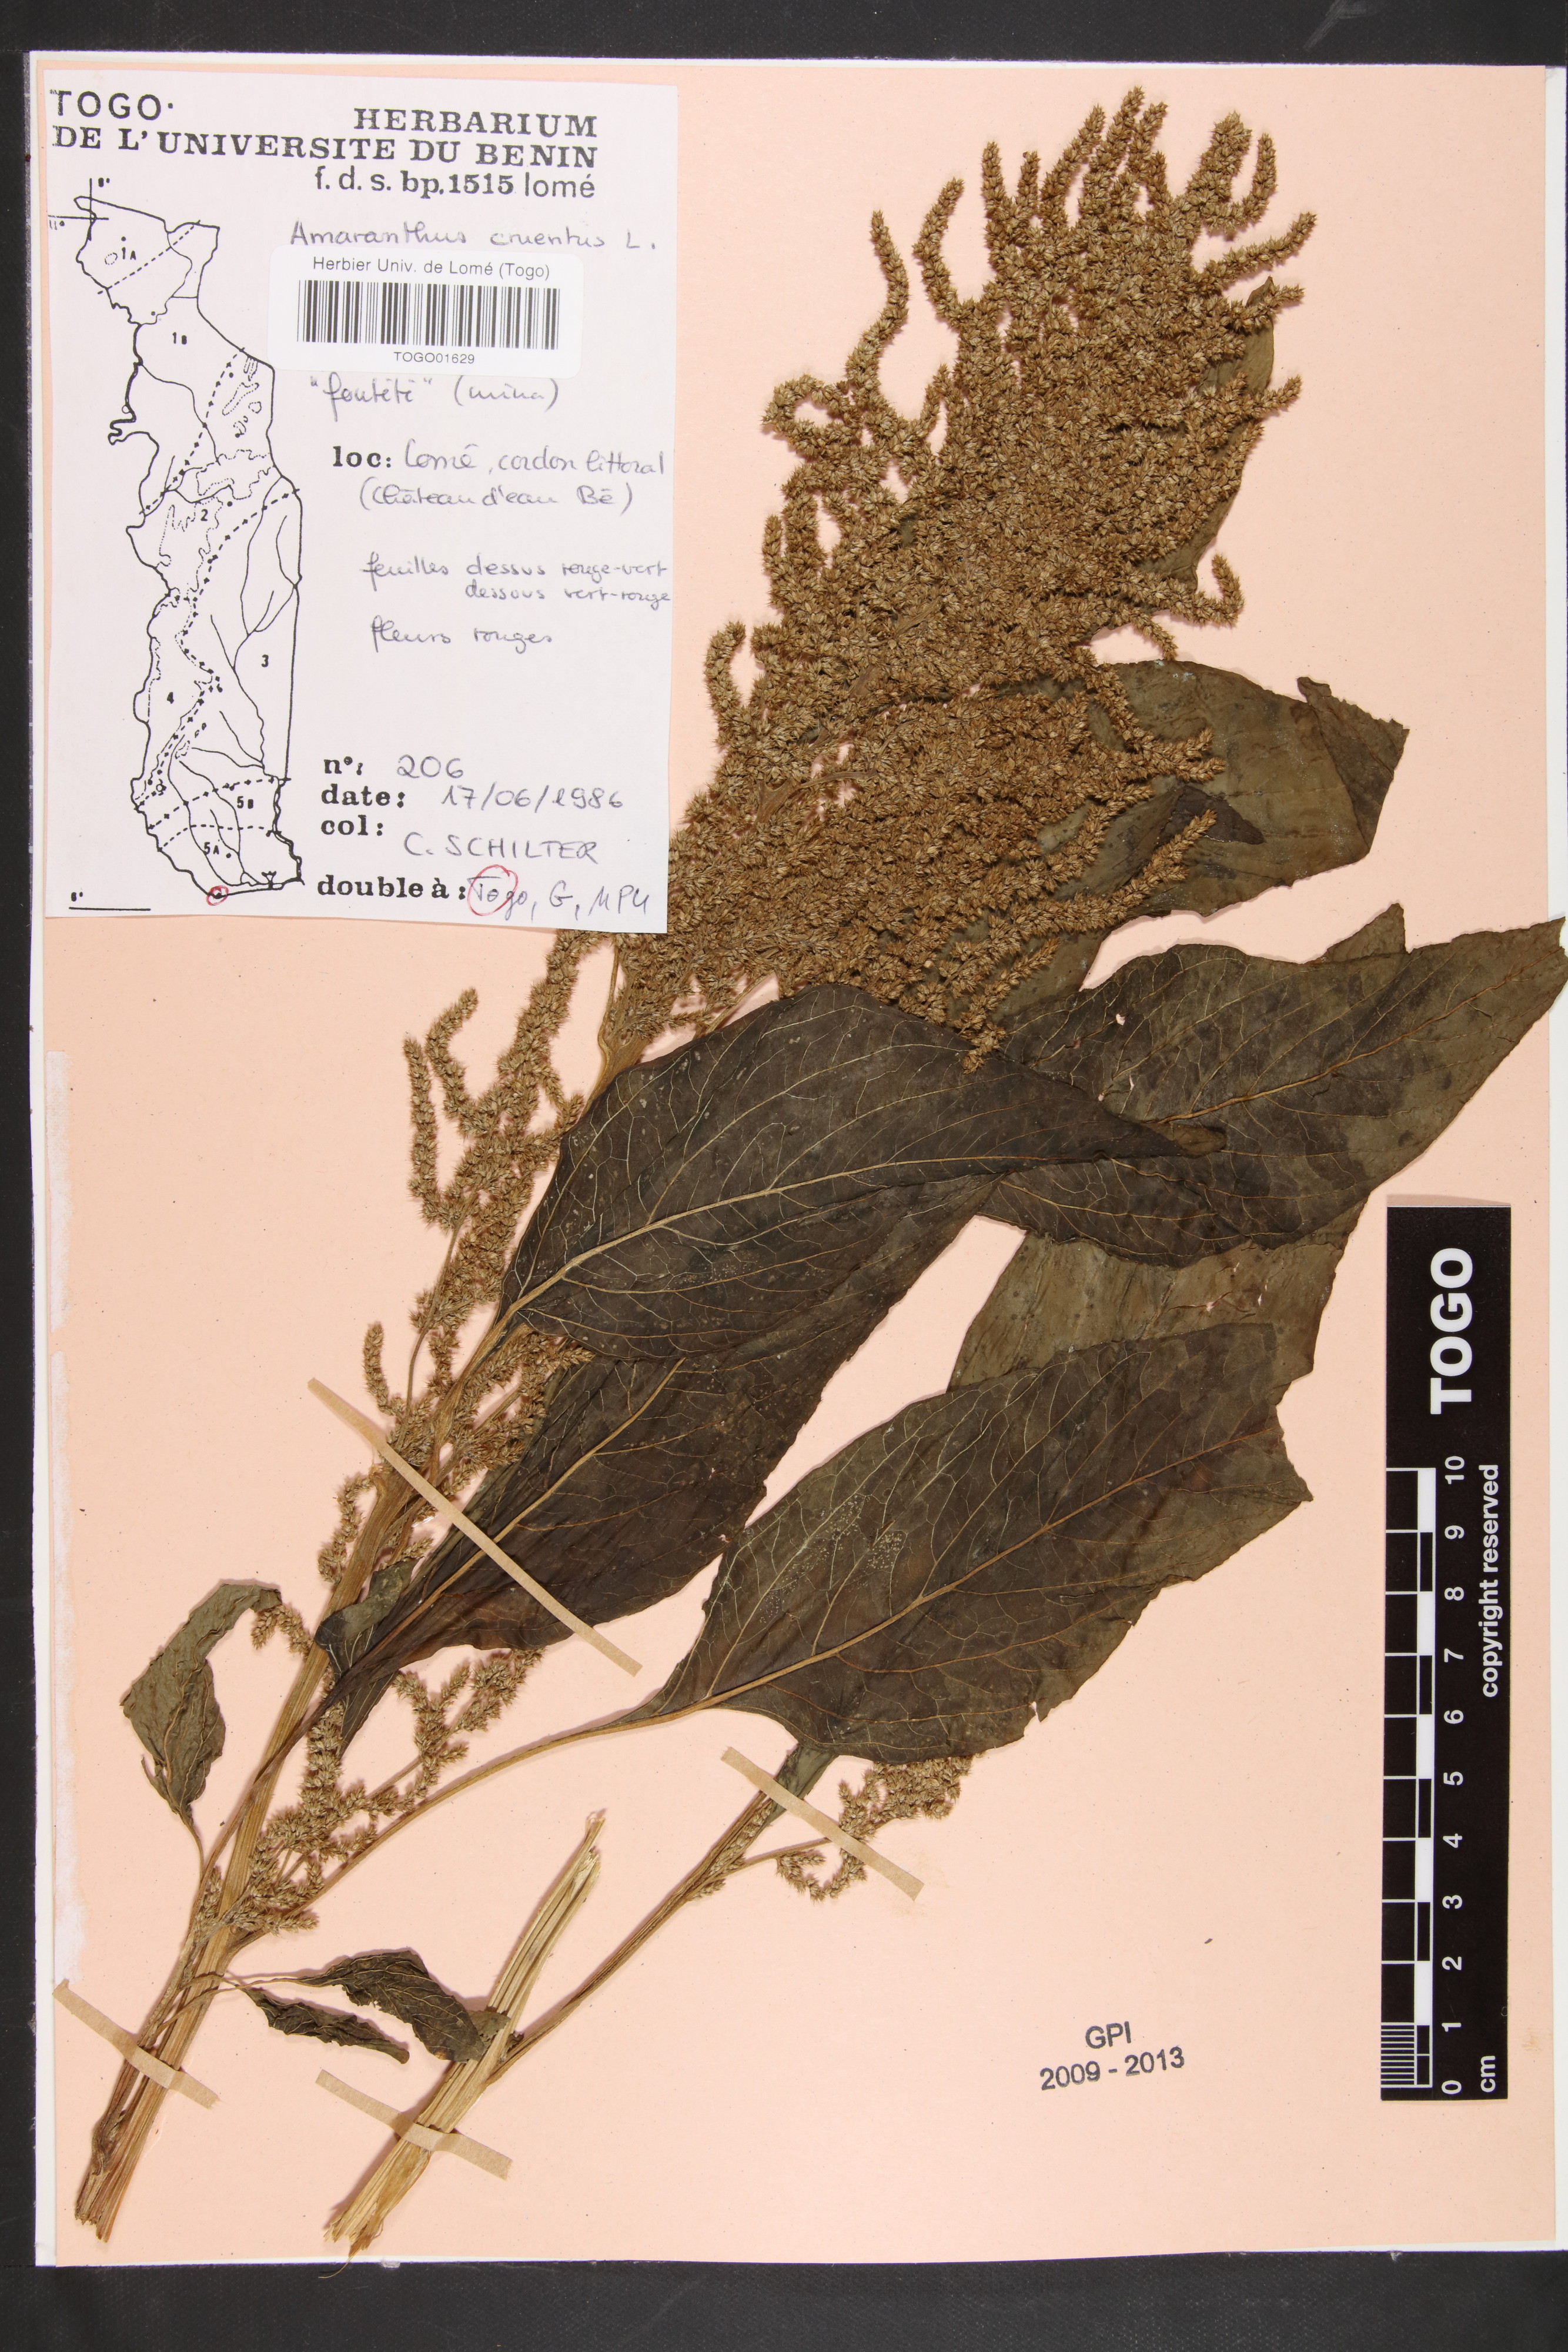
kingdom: Plantae
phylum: Tracheophyta
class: Magnoliopsida
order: Caryophyllales
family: Amaranthaceae
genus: Amaranthus
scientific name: Amaranthus cruentus
